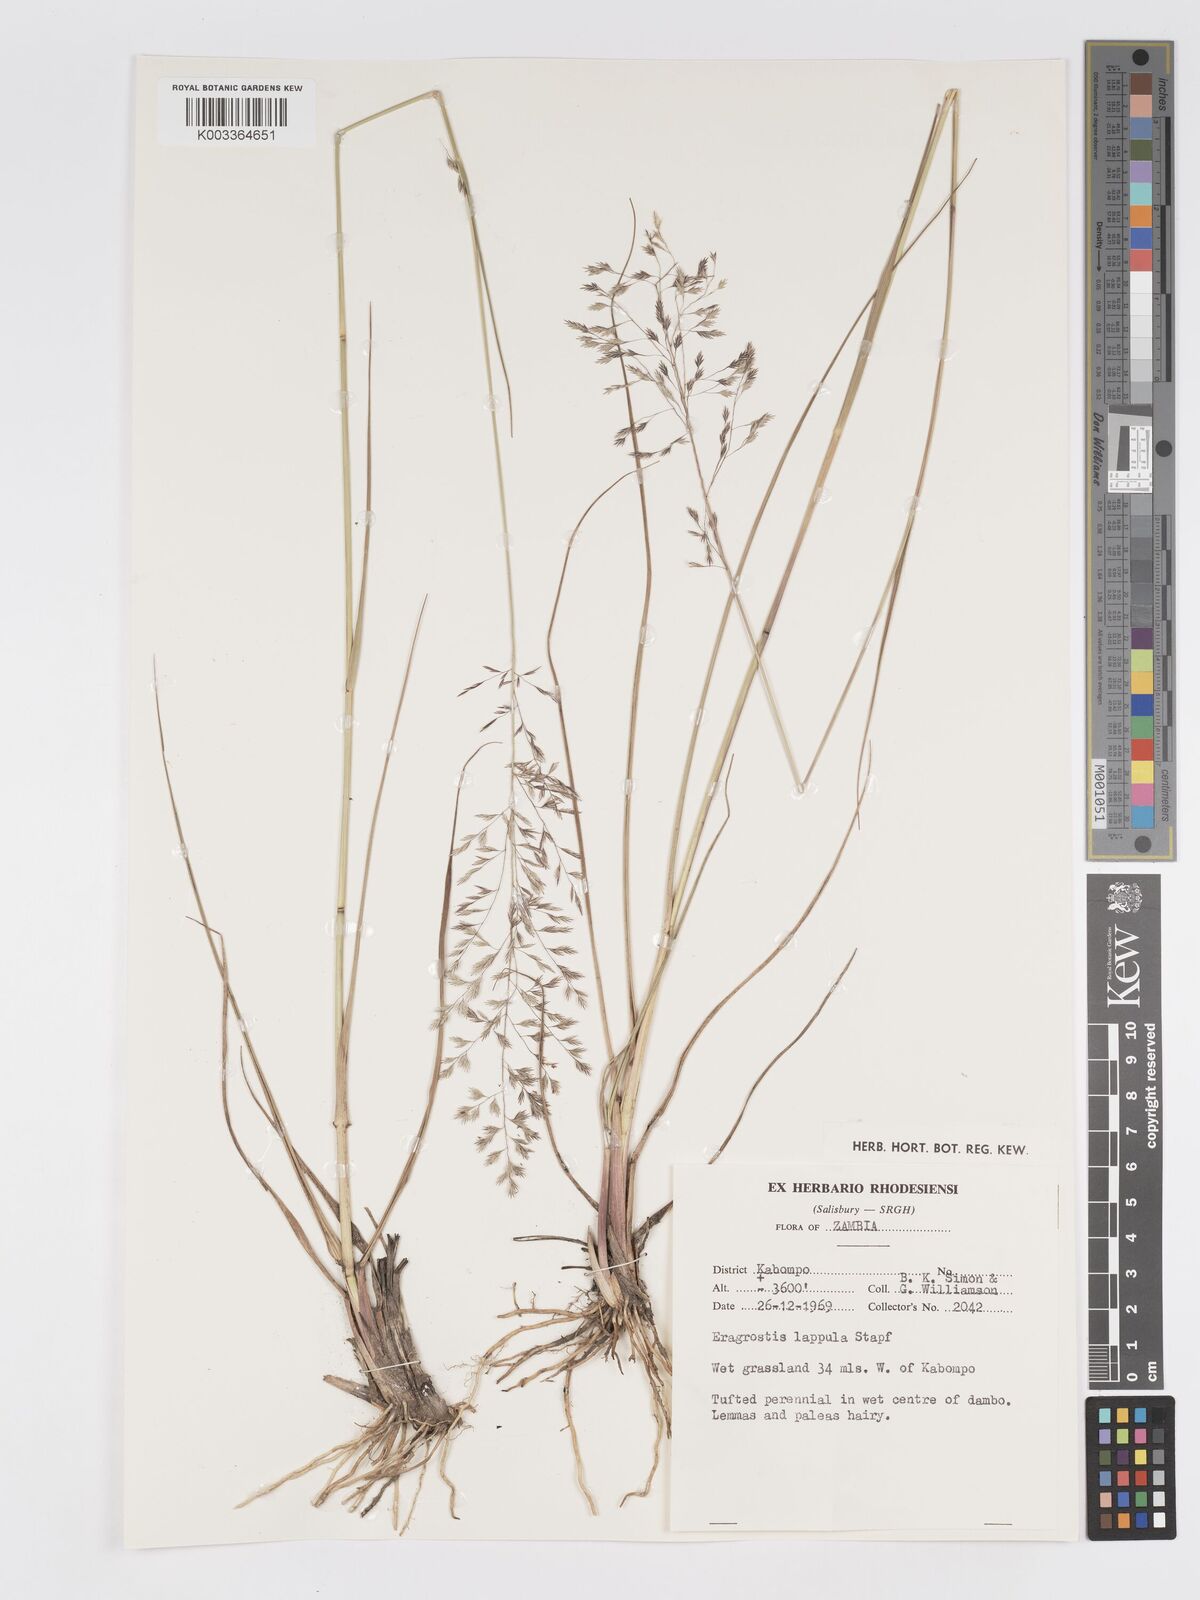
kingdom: Plantae
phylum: Tracheophyta
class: Liliopsida
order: Poales
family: Poaceae
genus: Eragrostis
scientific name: Eragrostis lappula
